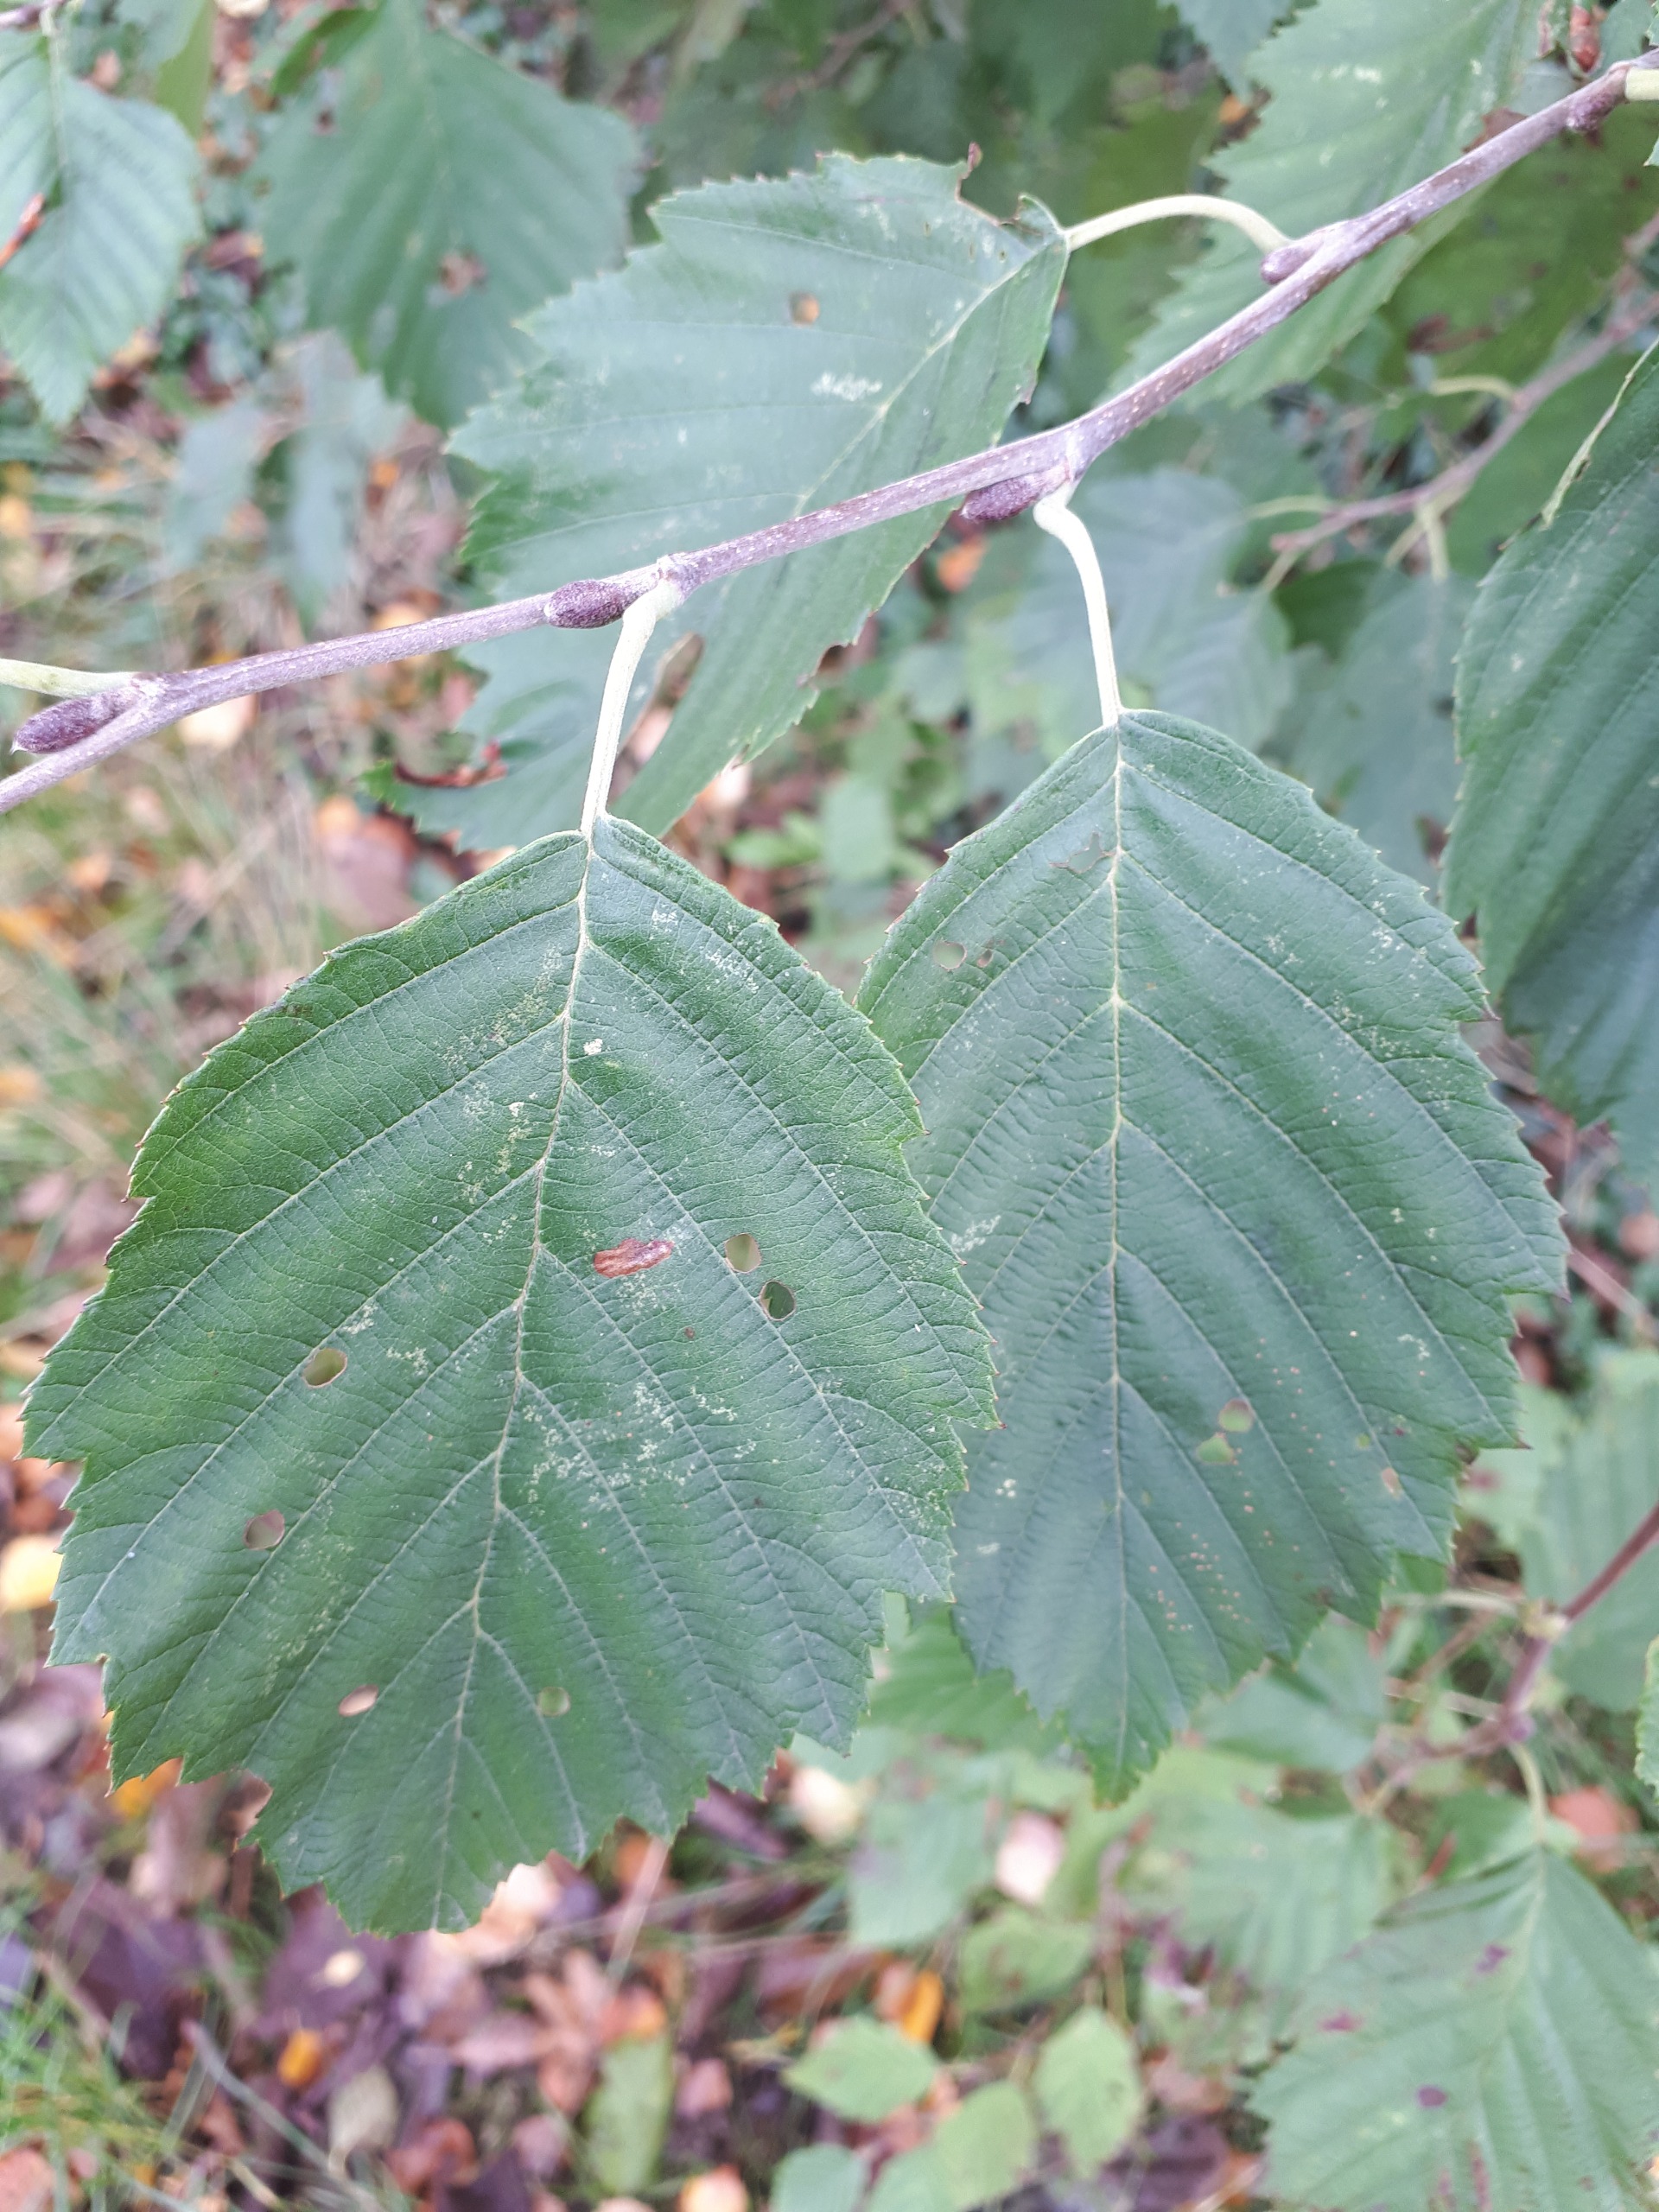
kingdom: Plantae
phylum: Tracheophyta
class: Magnoliopsida
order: Fagales
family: Betulaceae
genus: Alnus
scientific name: Alnus incana
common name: Grå-el/hvid-el
